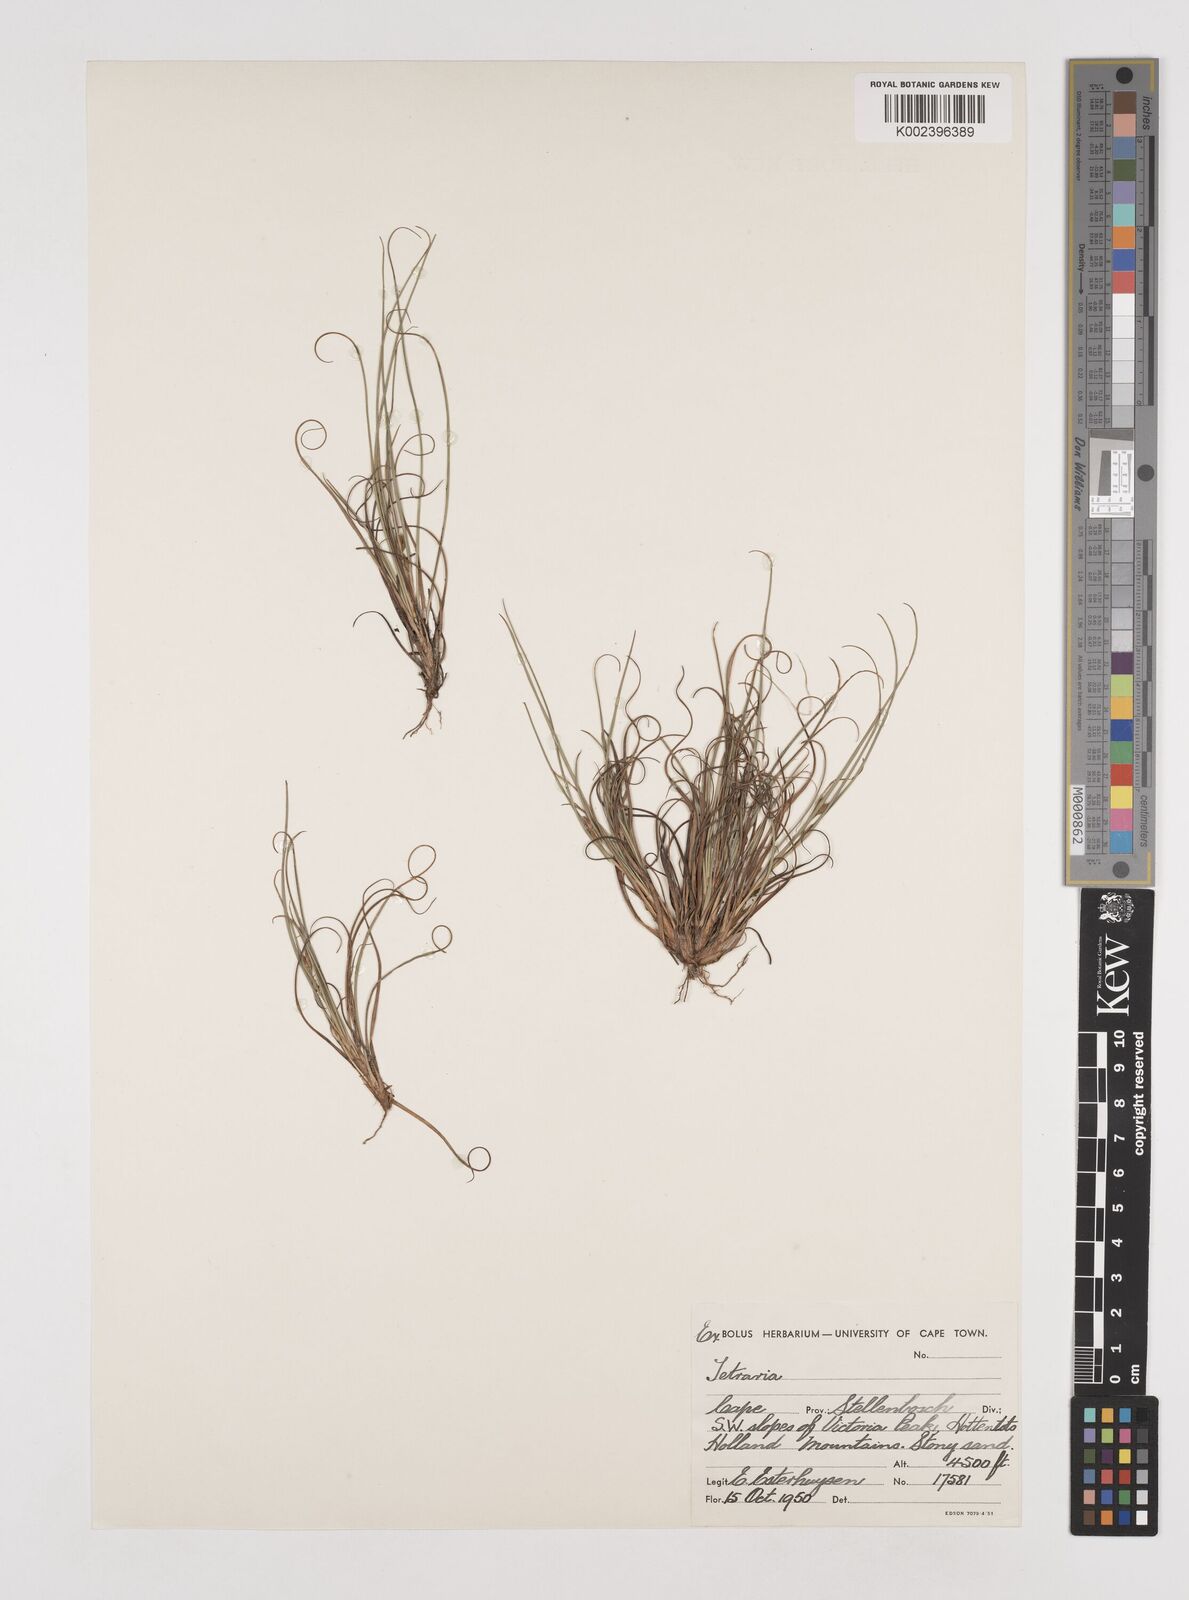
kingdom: Plantae
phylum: Tracheophyta
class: Liliopsida
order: Poales
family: Cyperaceae
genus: Tetraria
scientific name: Tetraria
